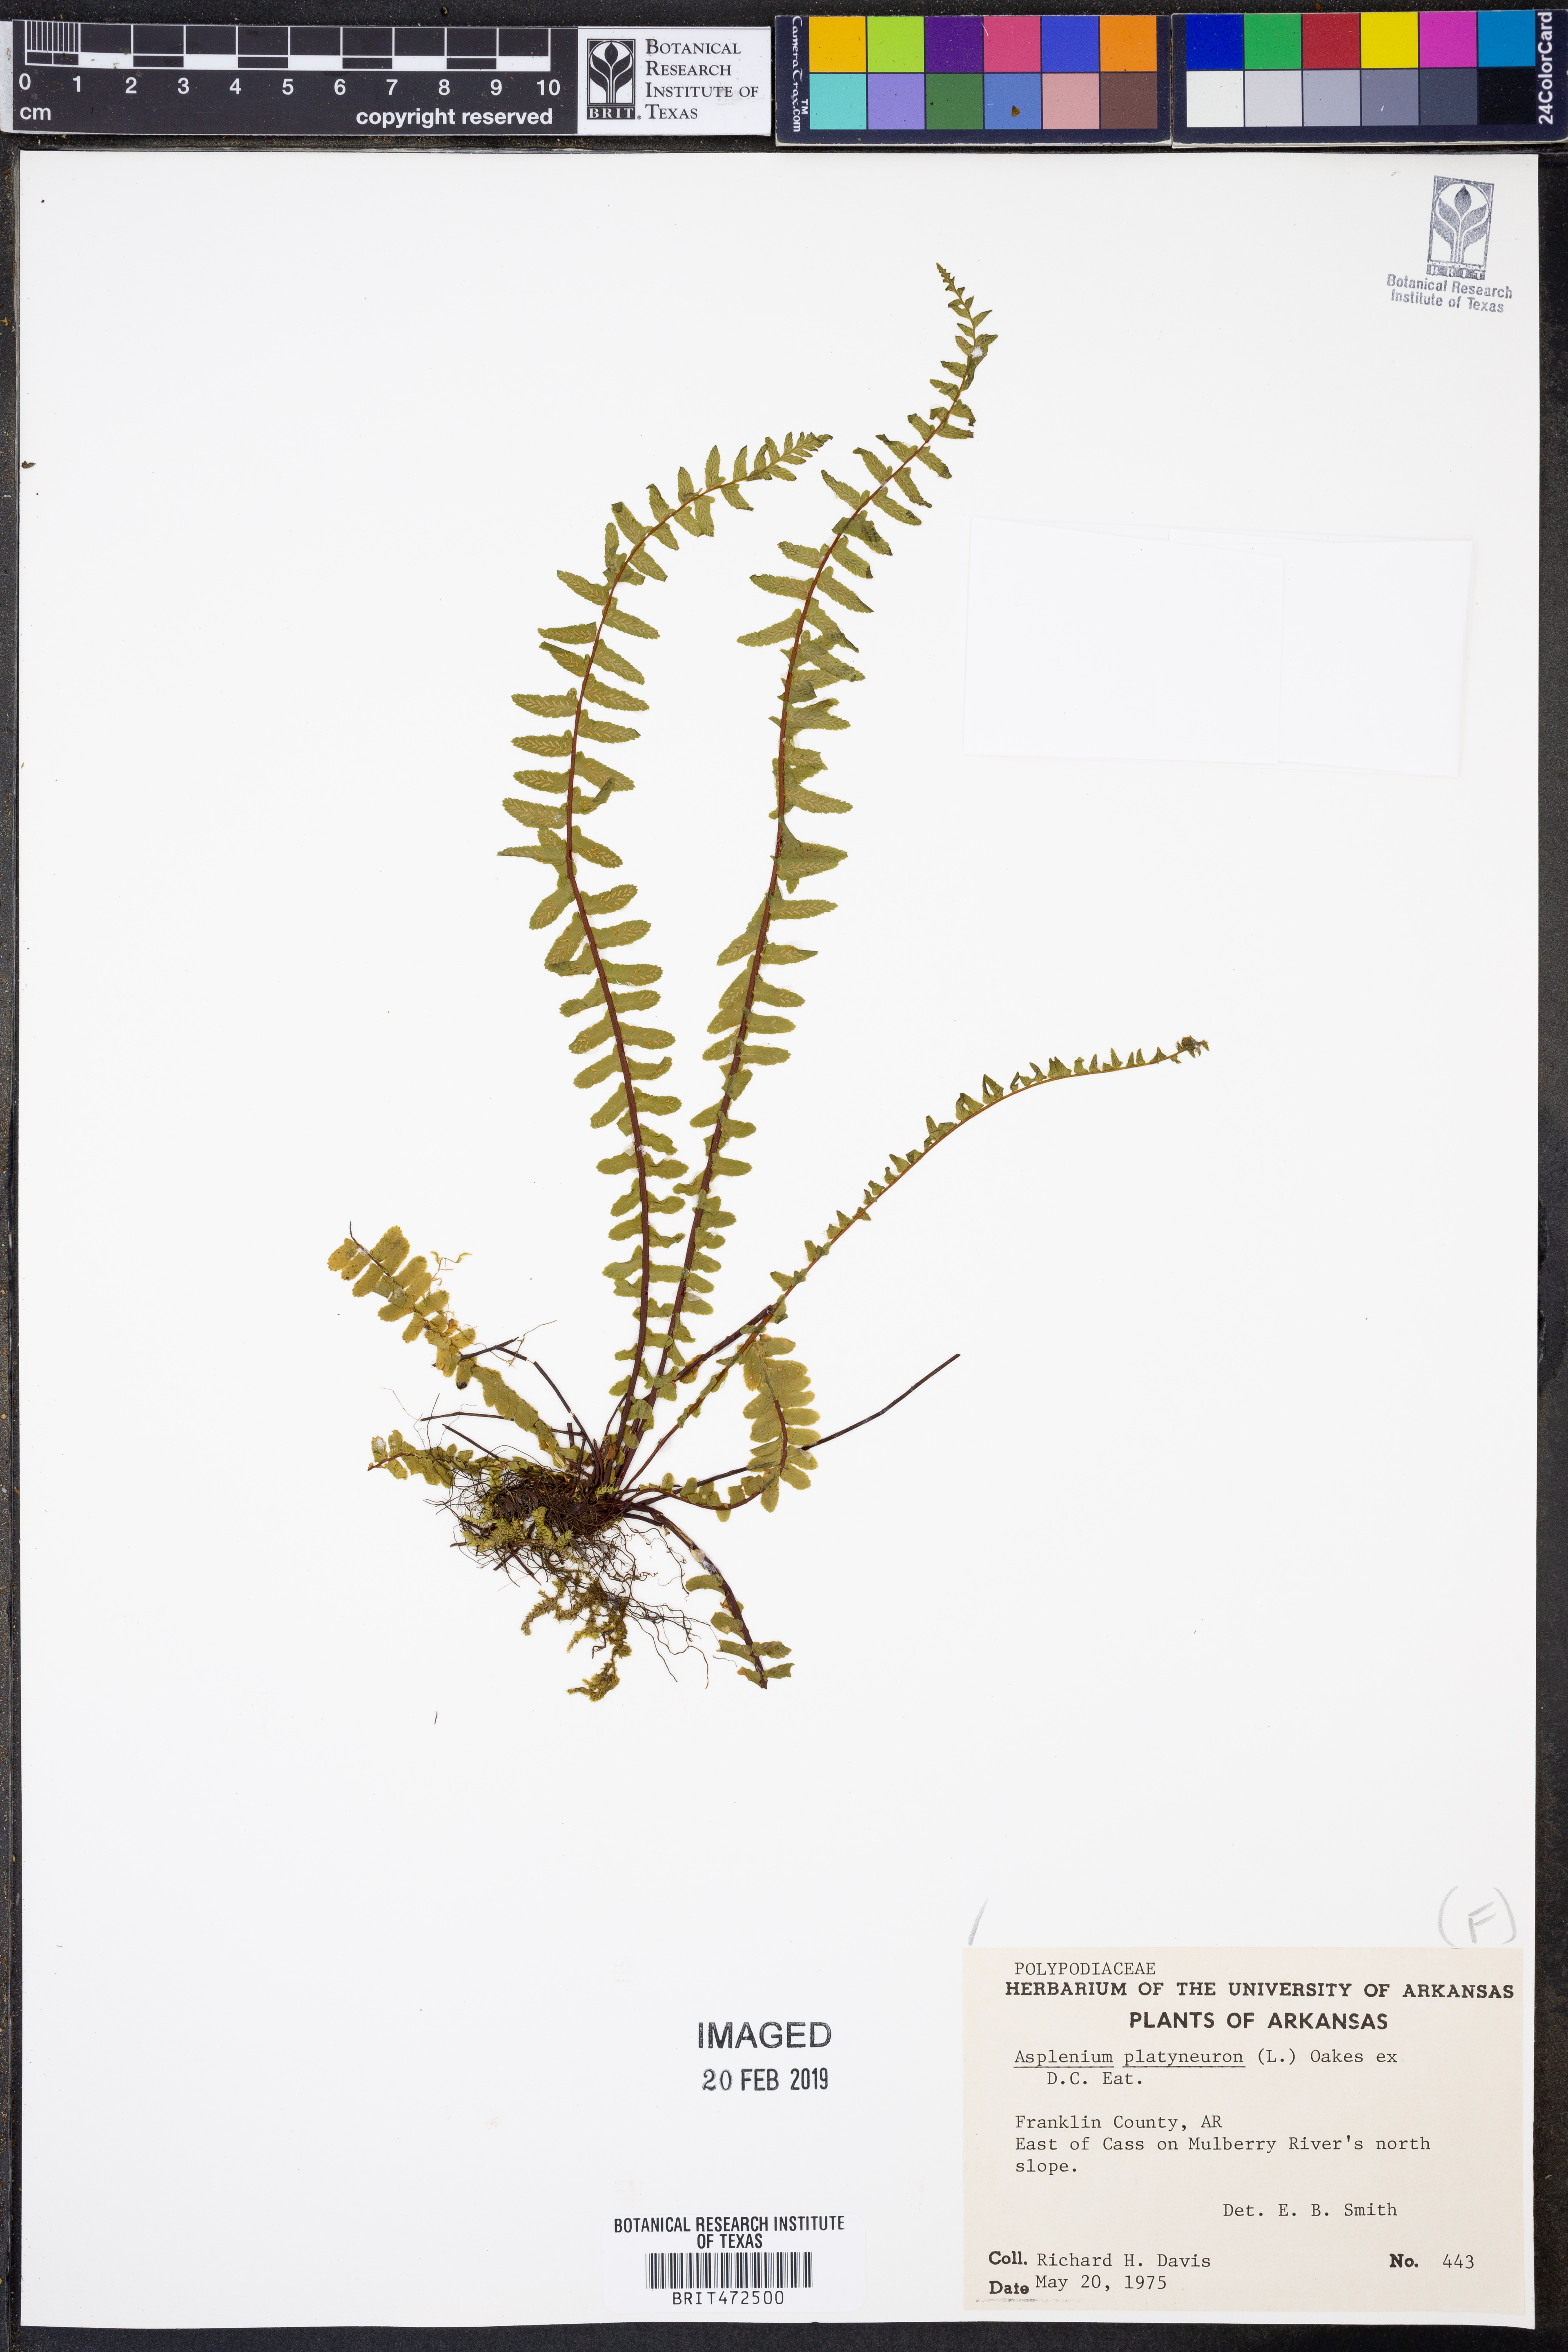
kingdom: Plantae
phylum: Tracheophyta
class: Polypodiopsida
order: Polypodiales
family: Aspleniaceae
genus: Asplenium
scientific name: Asplenium platyneuron
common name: Ebony spleenwort
